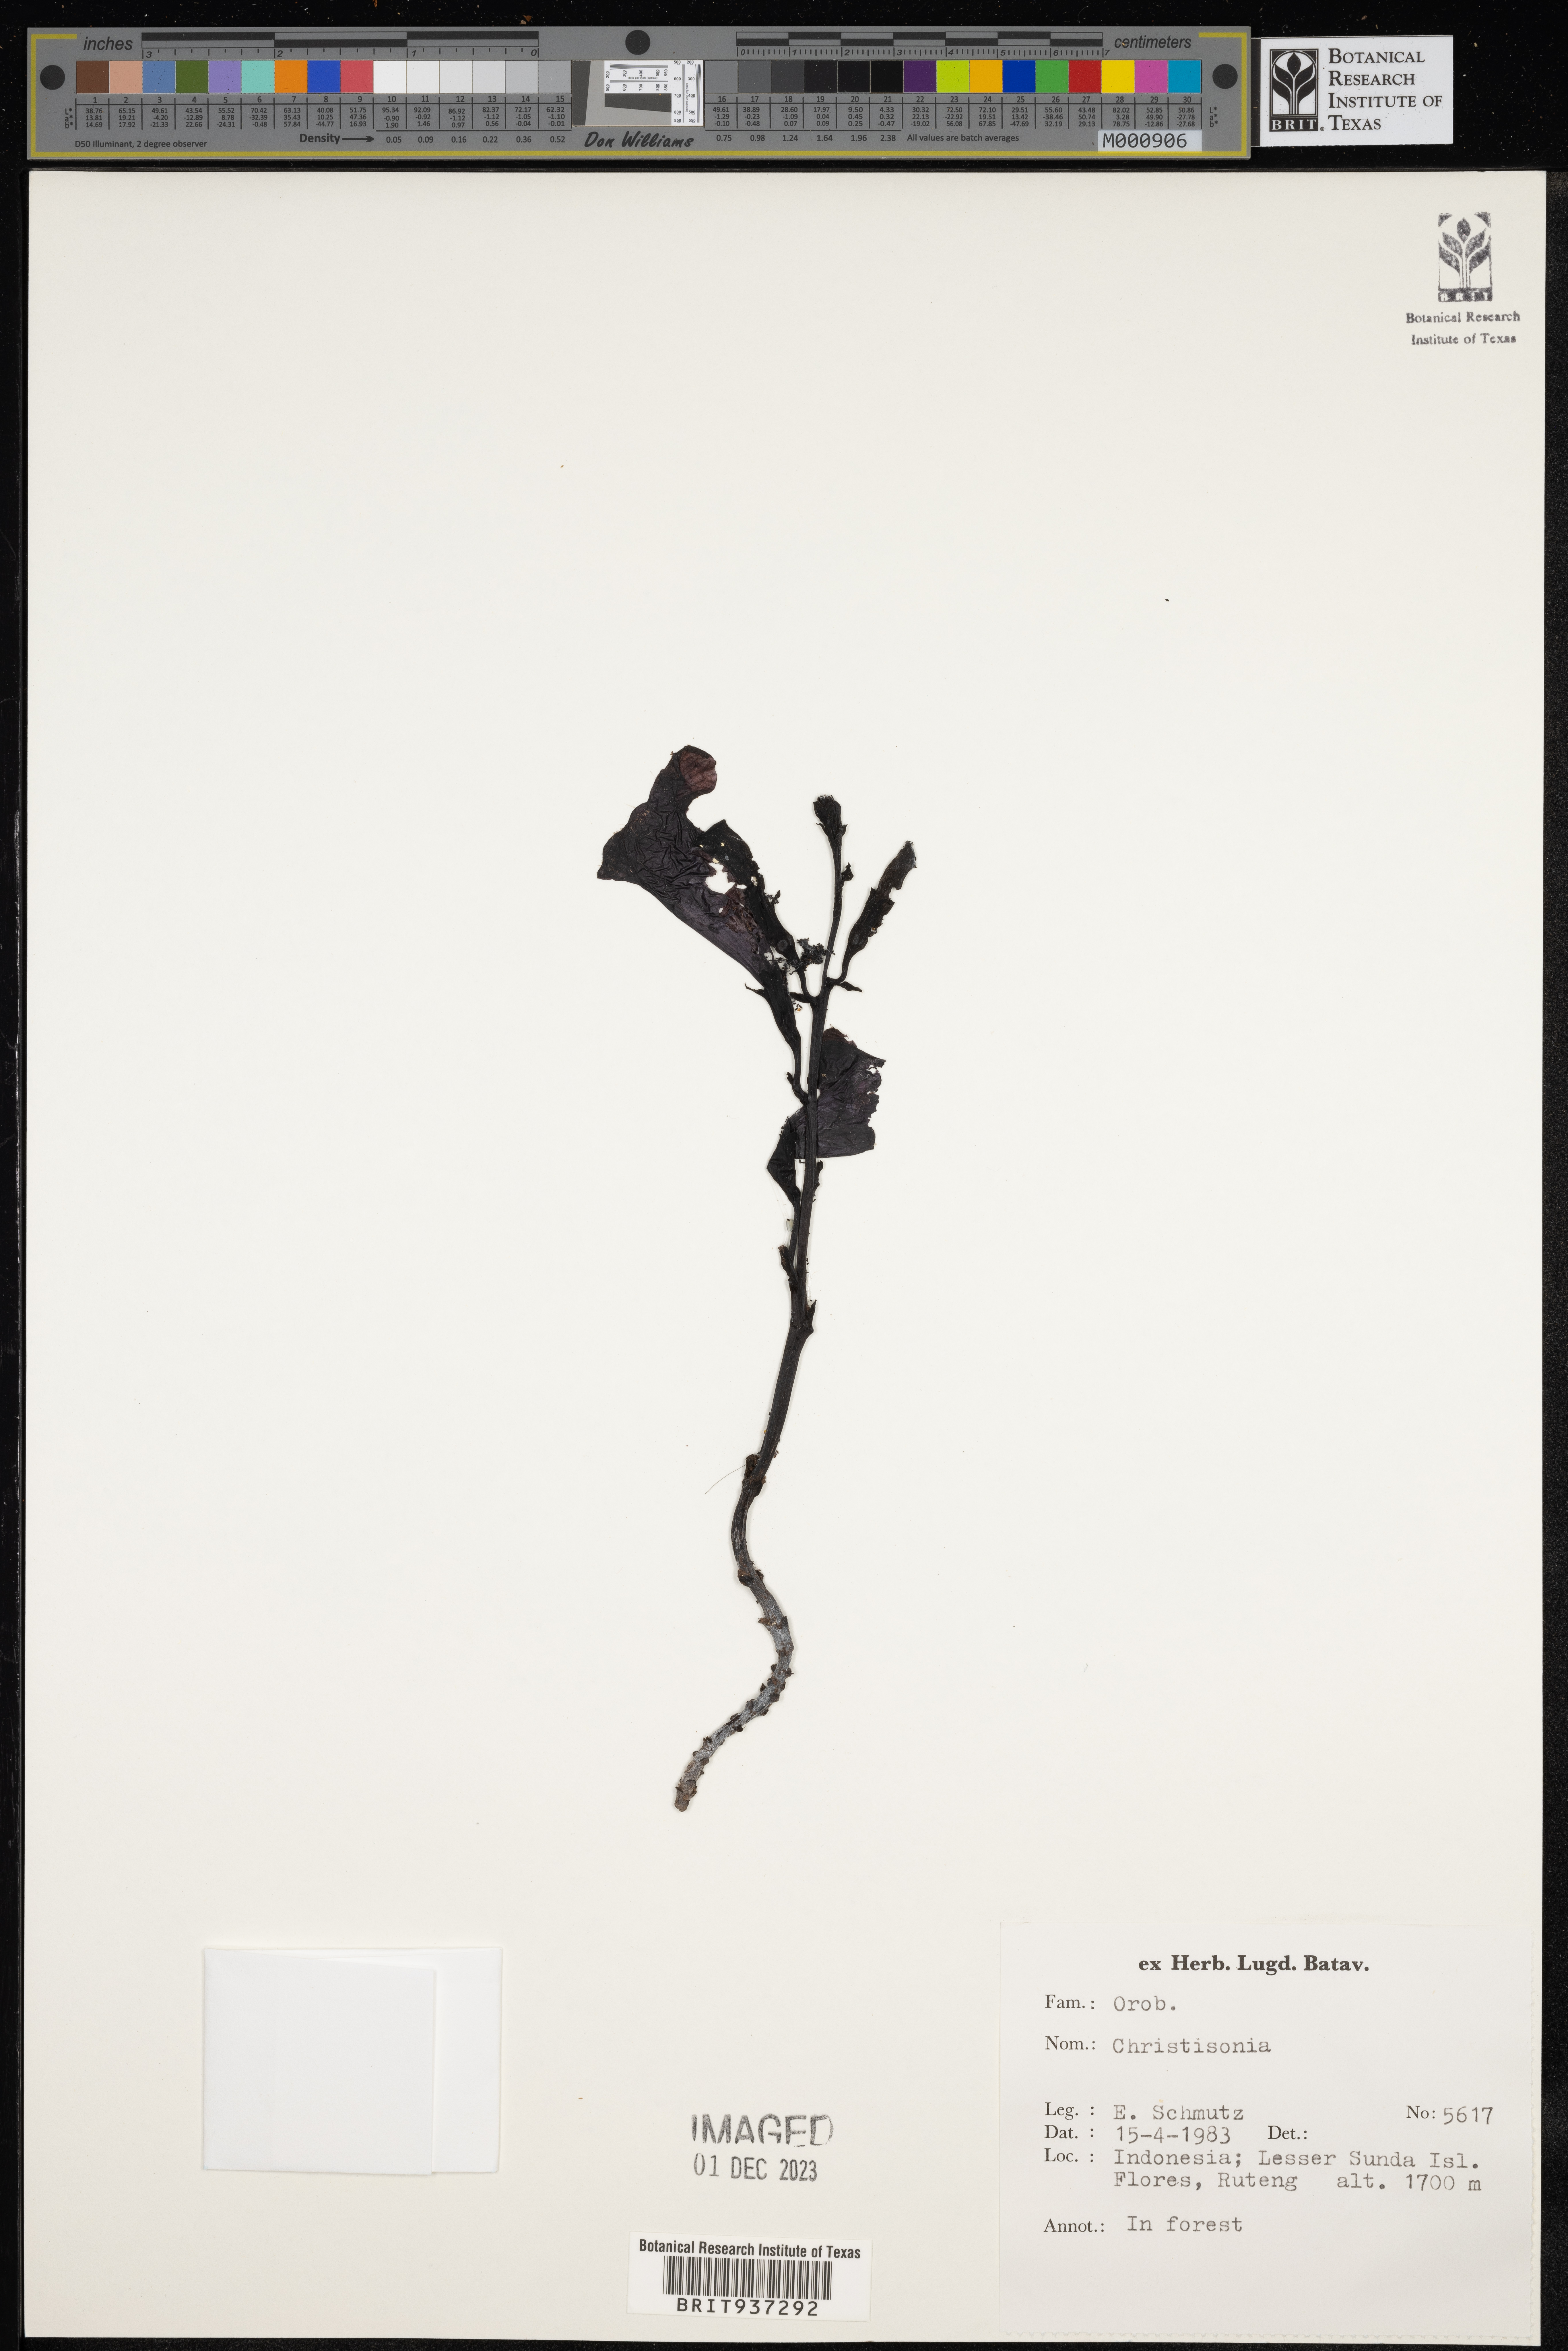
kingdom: Plantae
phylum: Tracheophyta
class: Magnoliopsida
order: Lamiales
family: Orobanchaceae
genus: Christisonia
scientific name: Christisonia
